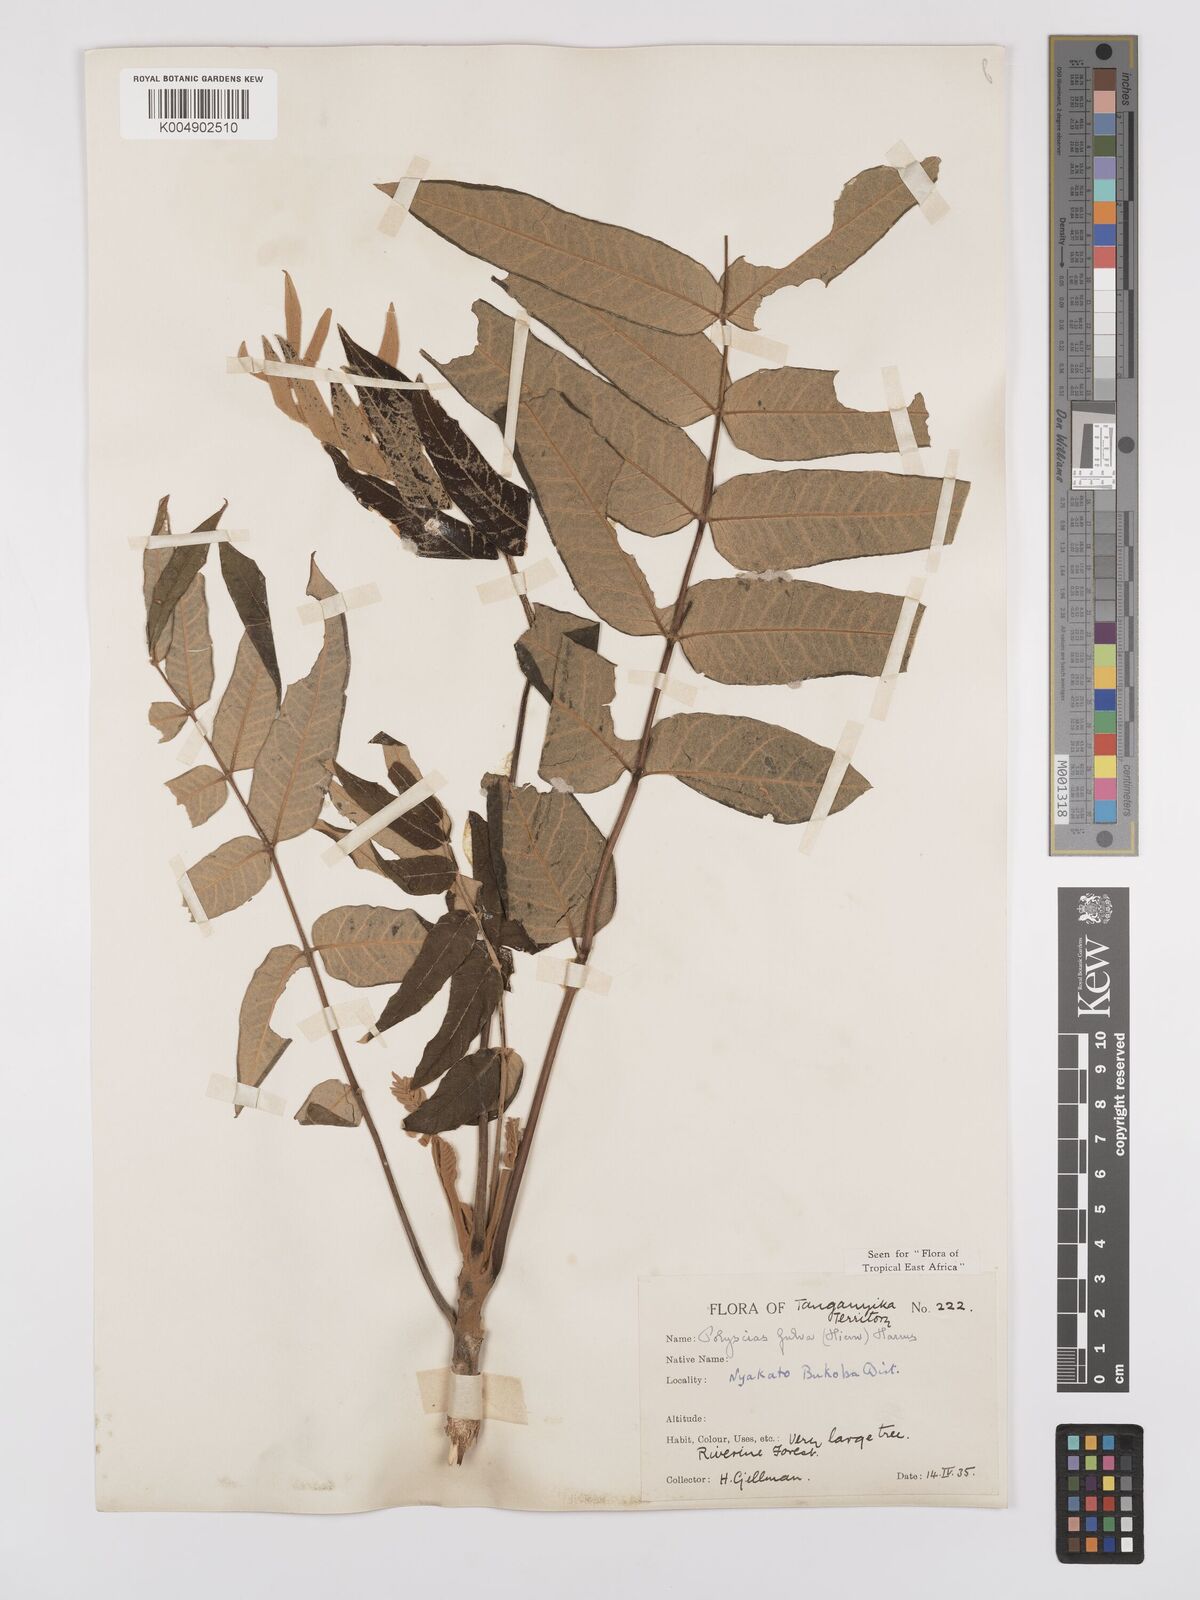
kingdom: Plantae
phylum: Tracheophyta
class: Magnoliopsida
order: Apiales
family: Araliaceae
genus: Polyscias
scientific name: Polyscias fulva
